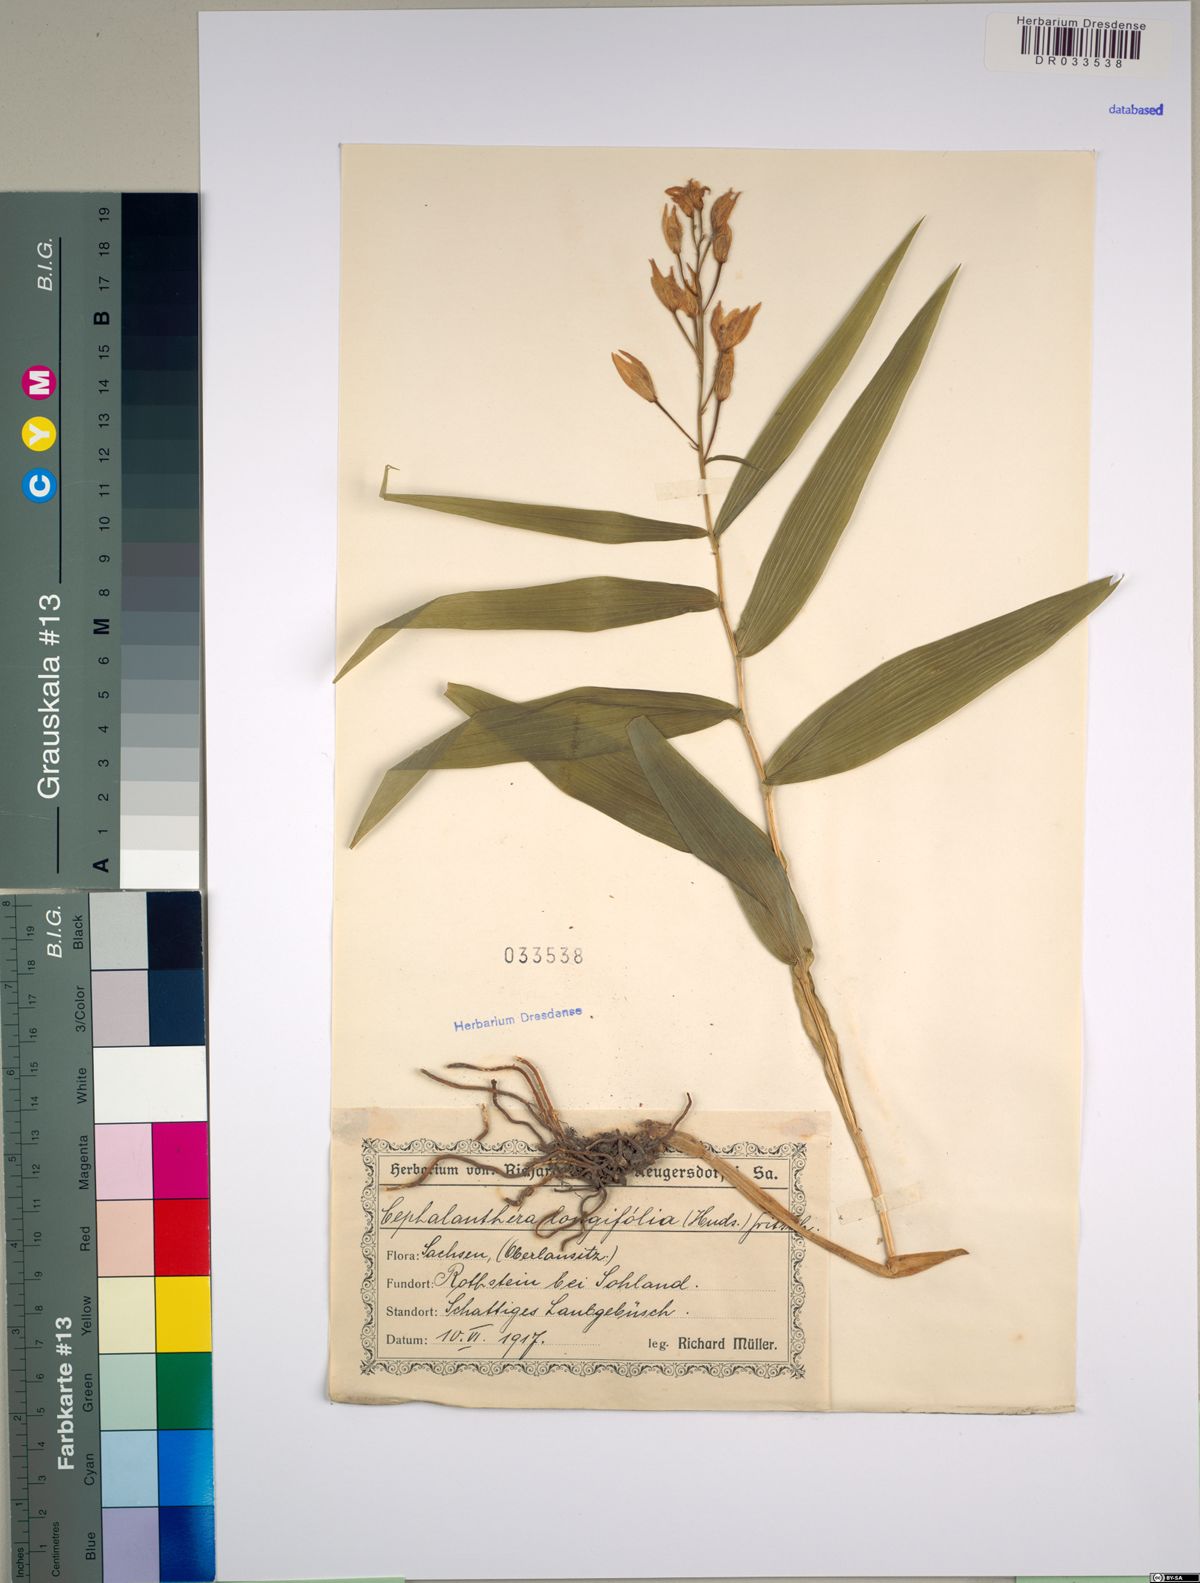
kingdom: Plantae
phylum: Tracheophyta
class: Liliopsida
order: Asparagales
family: Orchidaceae
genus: Cephalanthera
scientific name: Cephalanthera longifolia
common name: Narrow-leaved helleborine
